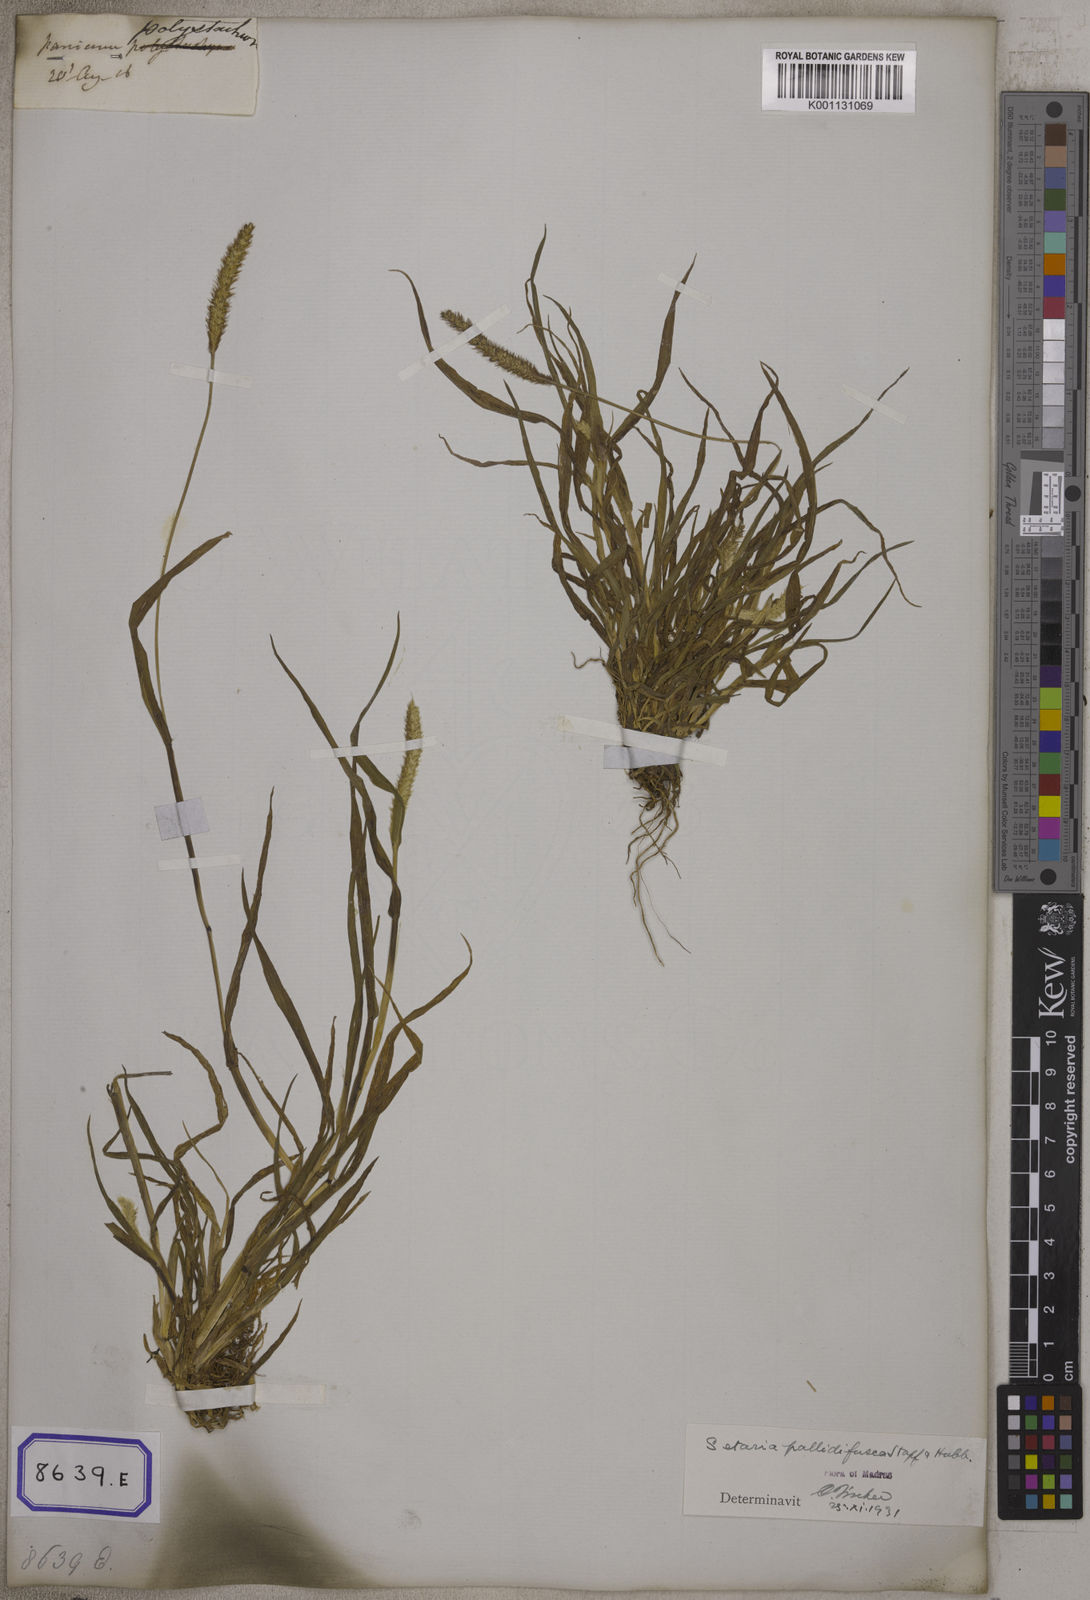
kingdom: Plantae
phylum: Tracheophyta
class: Liliopsida
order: Poales
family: Poaceae
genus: Cenchrus
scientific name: Cenchrus americanus
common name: Pearl millet
